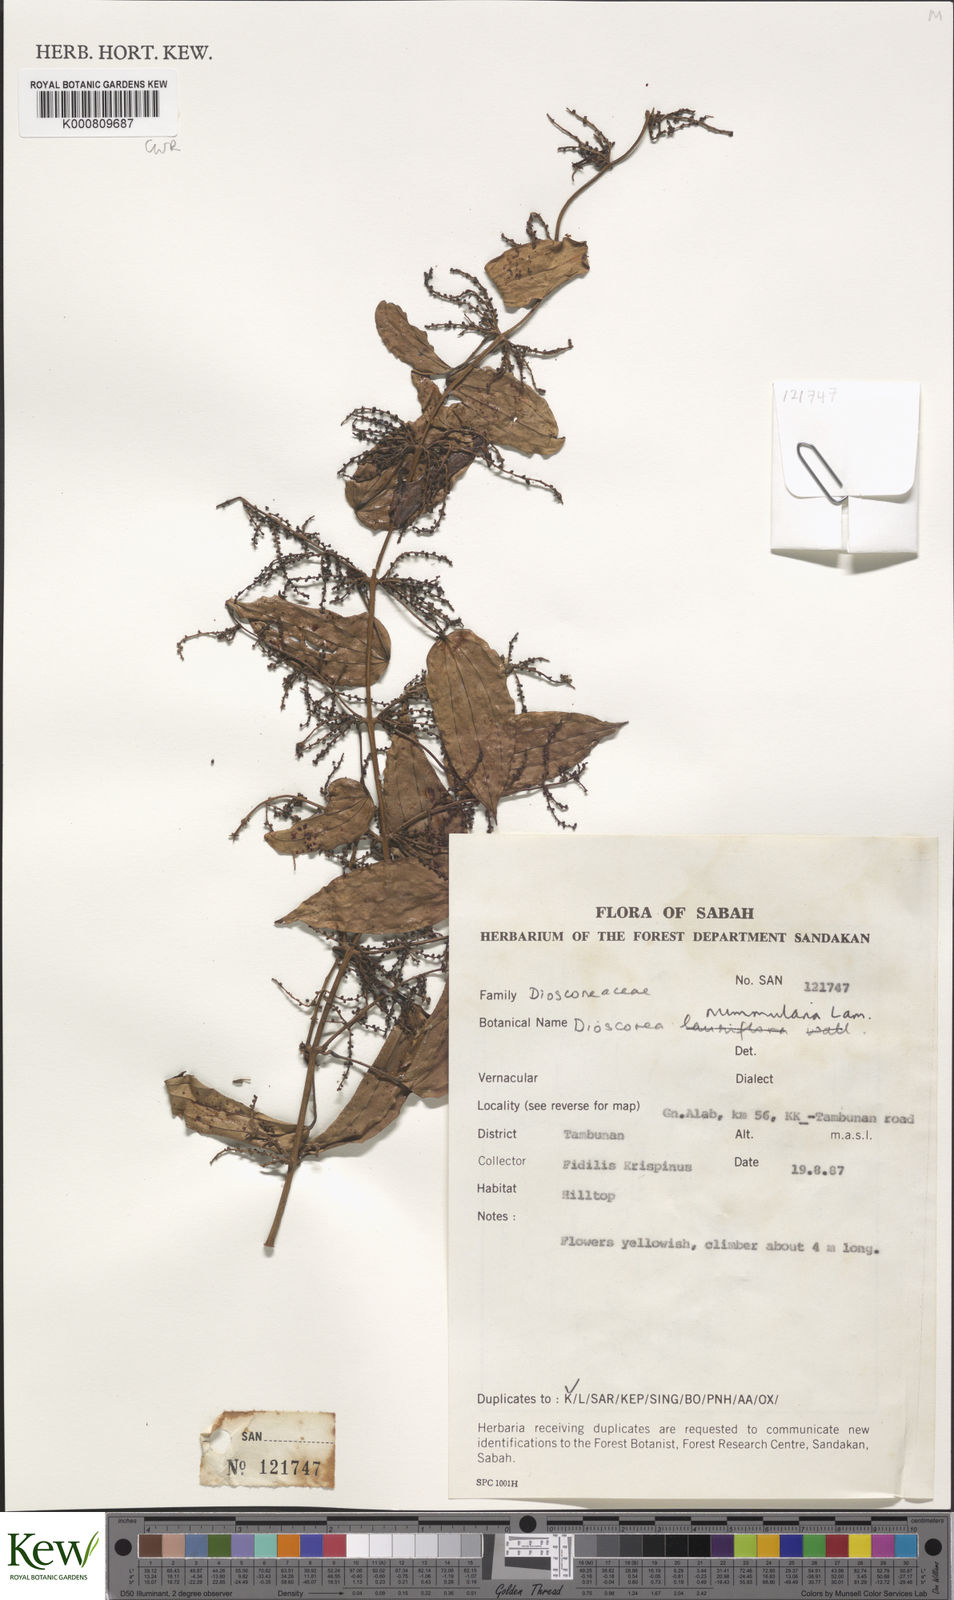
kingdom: Plantae
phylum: Tracheophyta
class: Liliopsida
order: Dioscoreales
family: Dioscoreaceae
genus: Dioscorea
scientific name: Dioscorea nummularia
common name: Pacific yam
